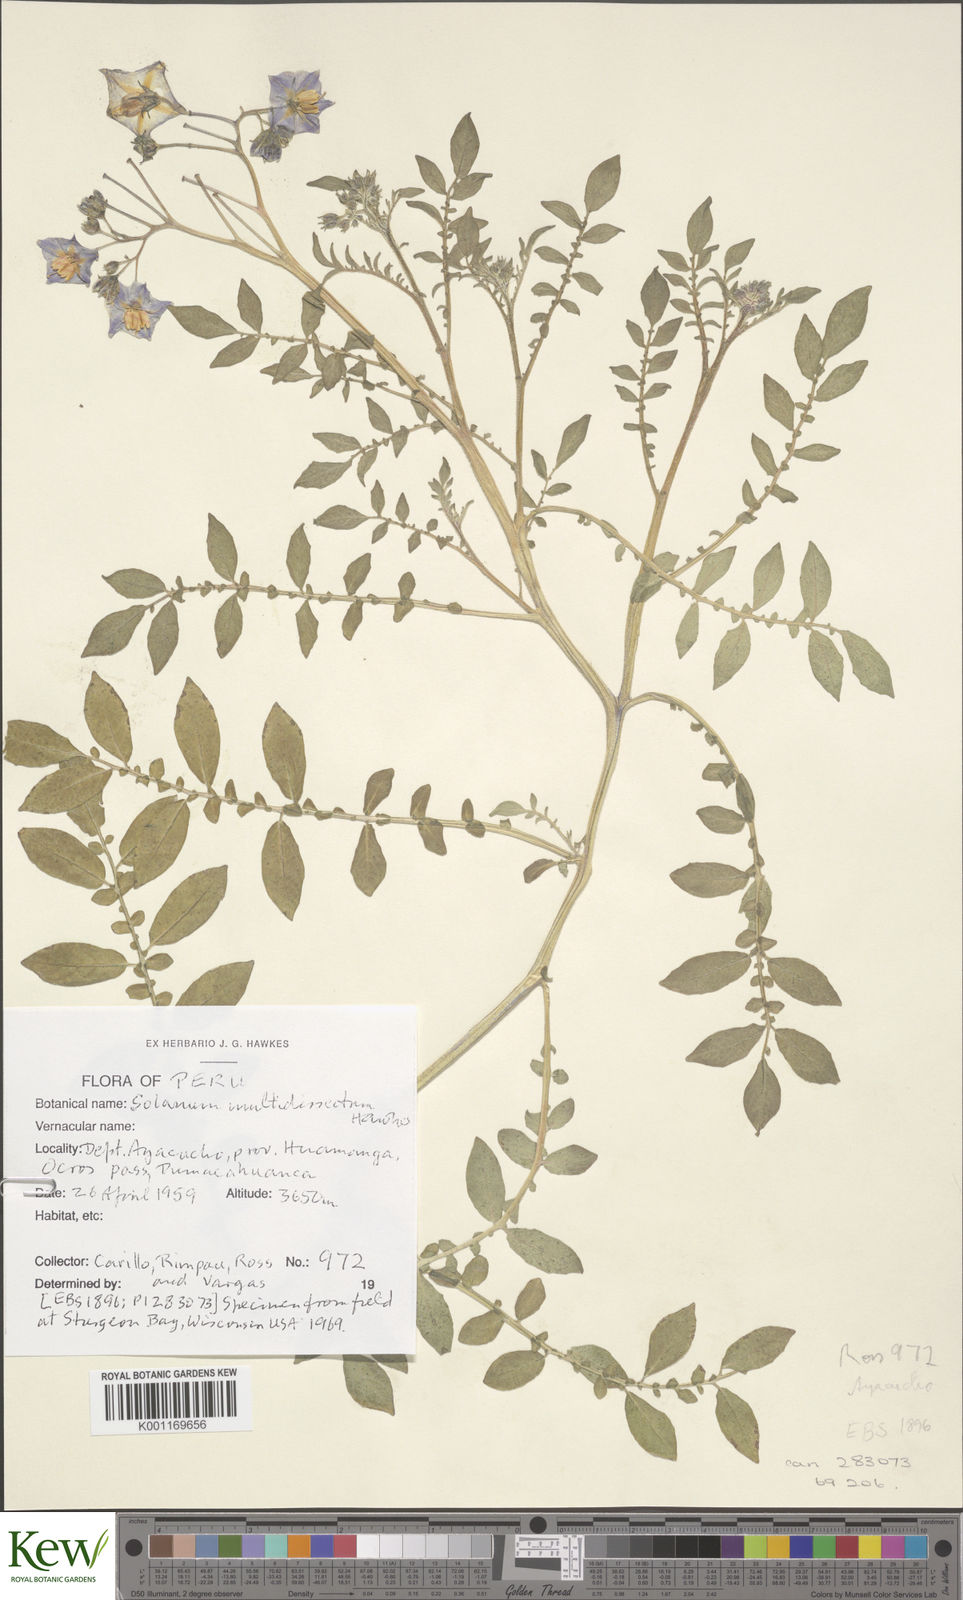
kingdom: Plantae
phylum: Tracheophyta
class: Magnoliopsida
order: Solanales
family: Solanaceae
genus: Solanum
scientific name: Solanum candolleanum
